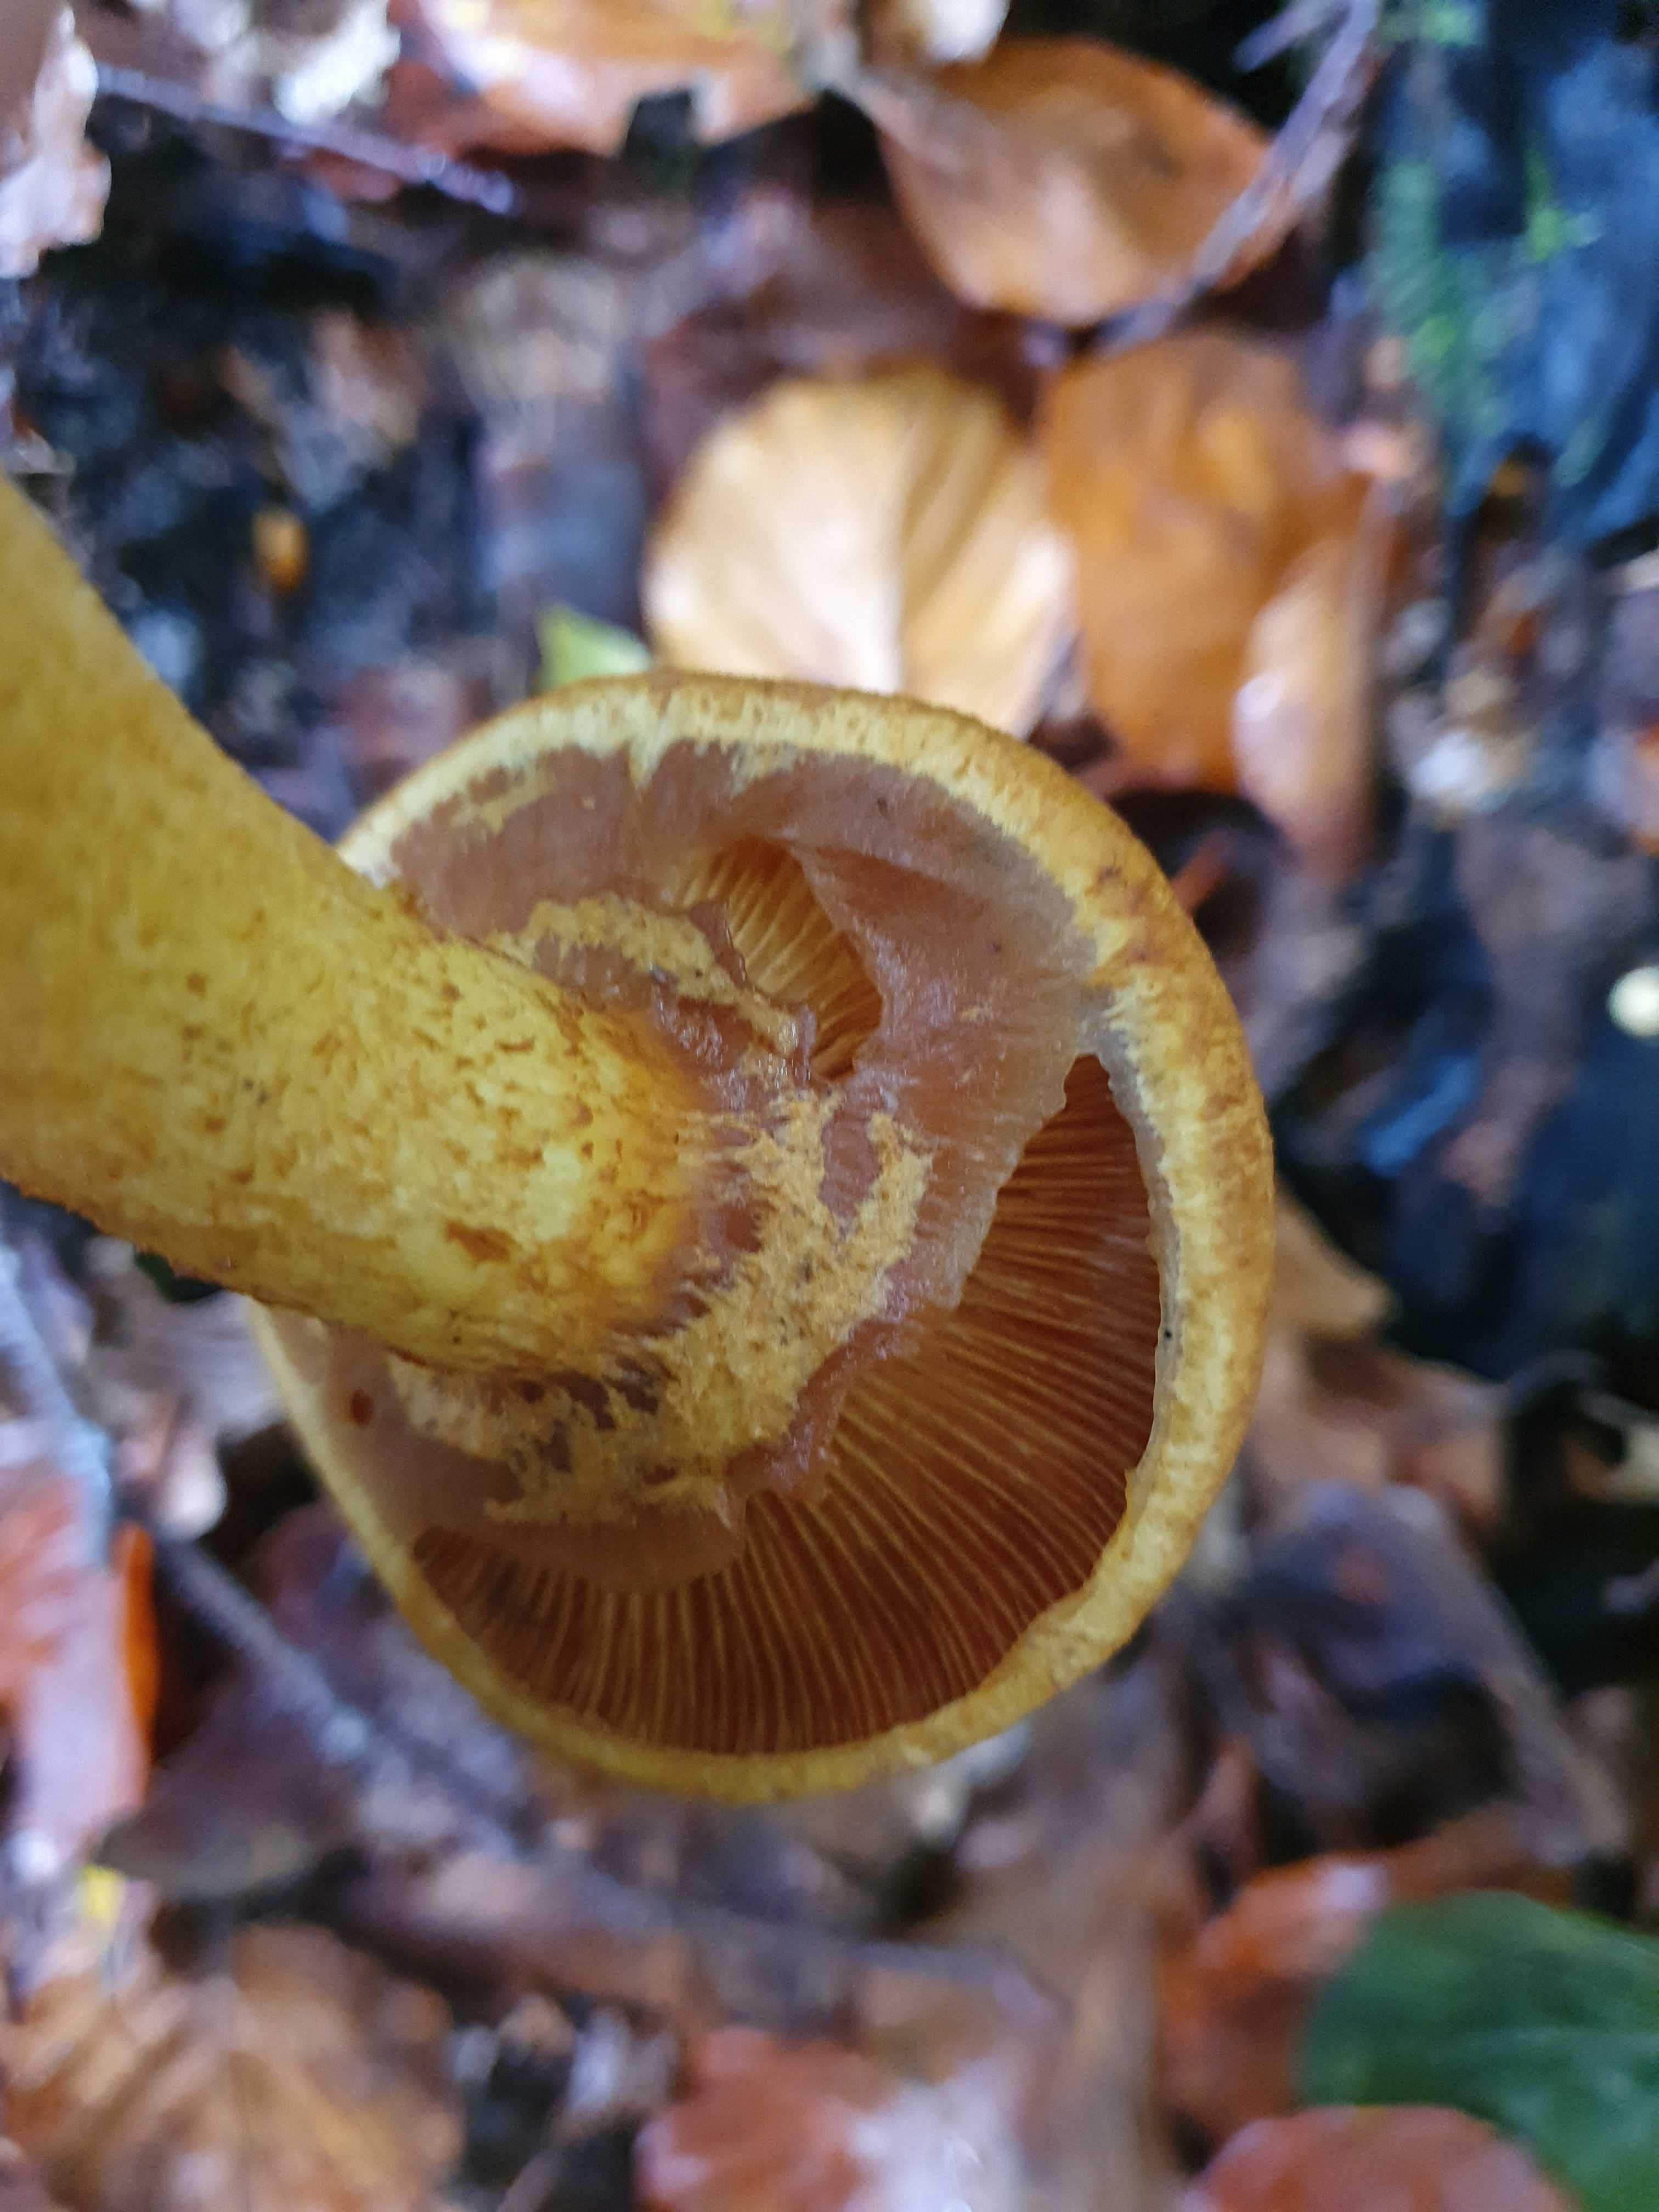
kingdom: Fungi
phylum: Basidiomycota
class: Agaricomycetes
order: Agaricales
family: Hymenogastraceae
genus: Gymnopilus
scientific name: Gymnopilus spectabilis
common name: fibret flammehat
